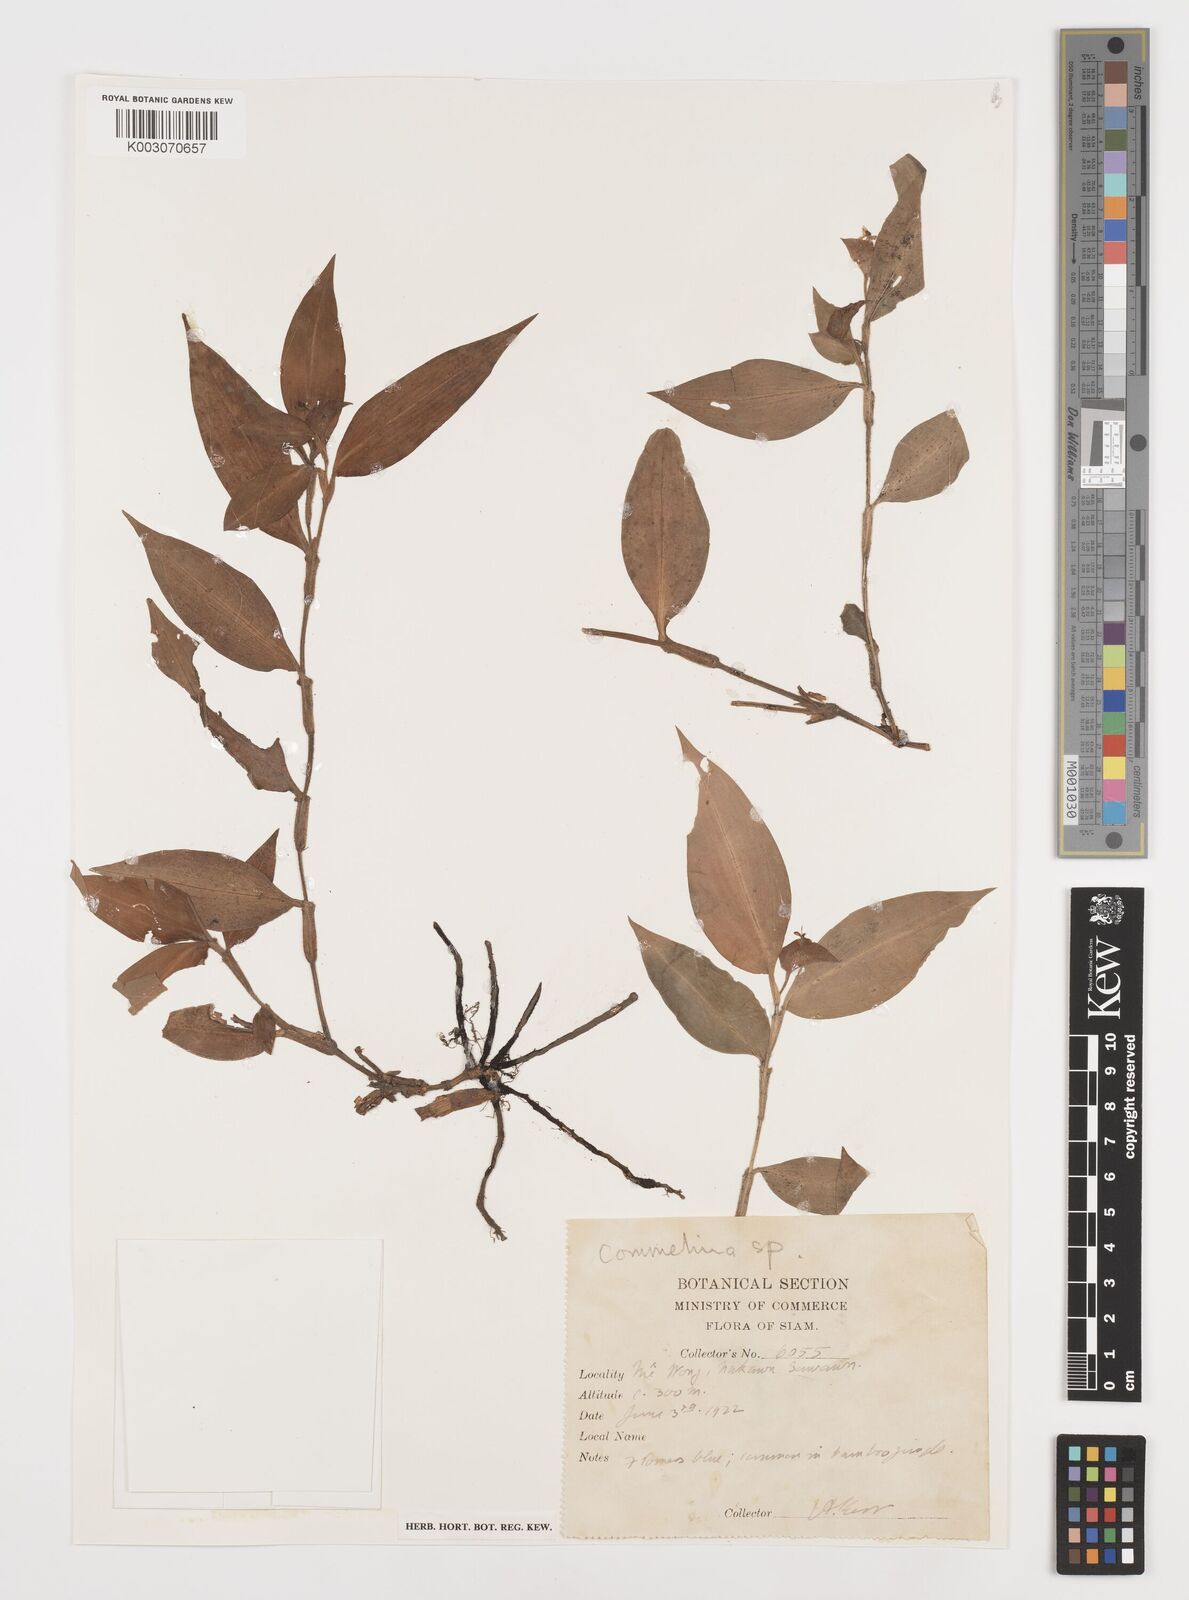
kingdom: Plantae
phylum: Tracheophyta
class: Liliopsida
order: Commelinales
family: Commelinaceae
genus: Commelina
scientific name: Commelina
